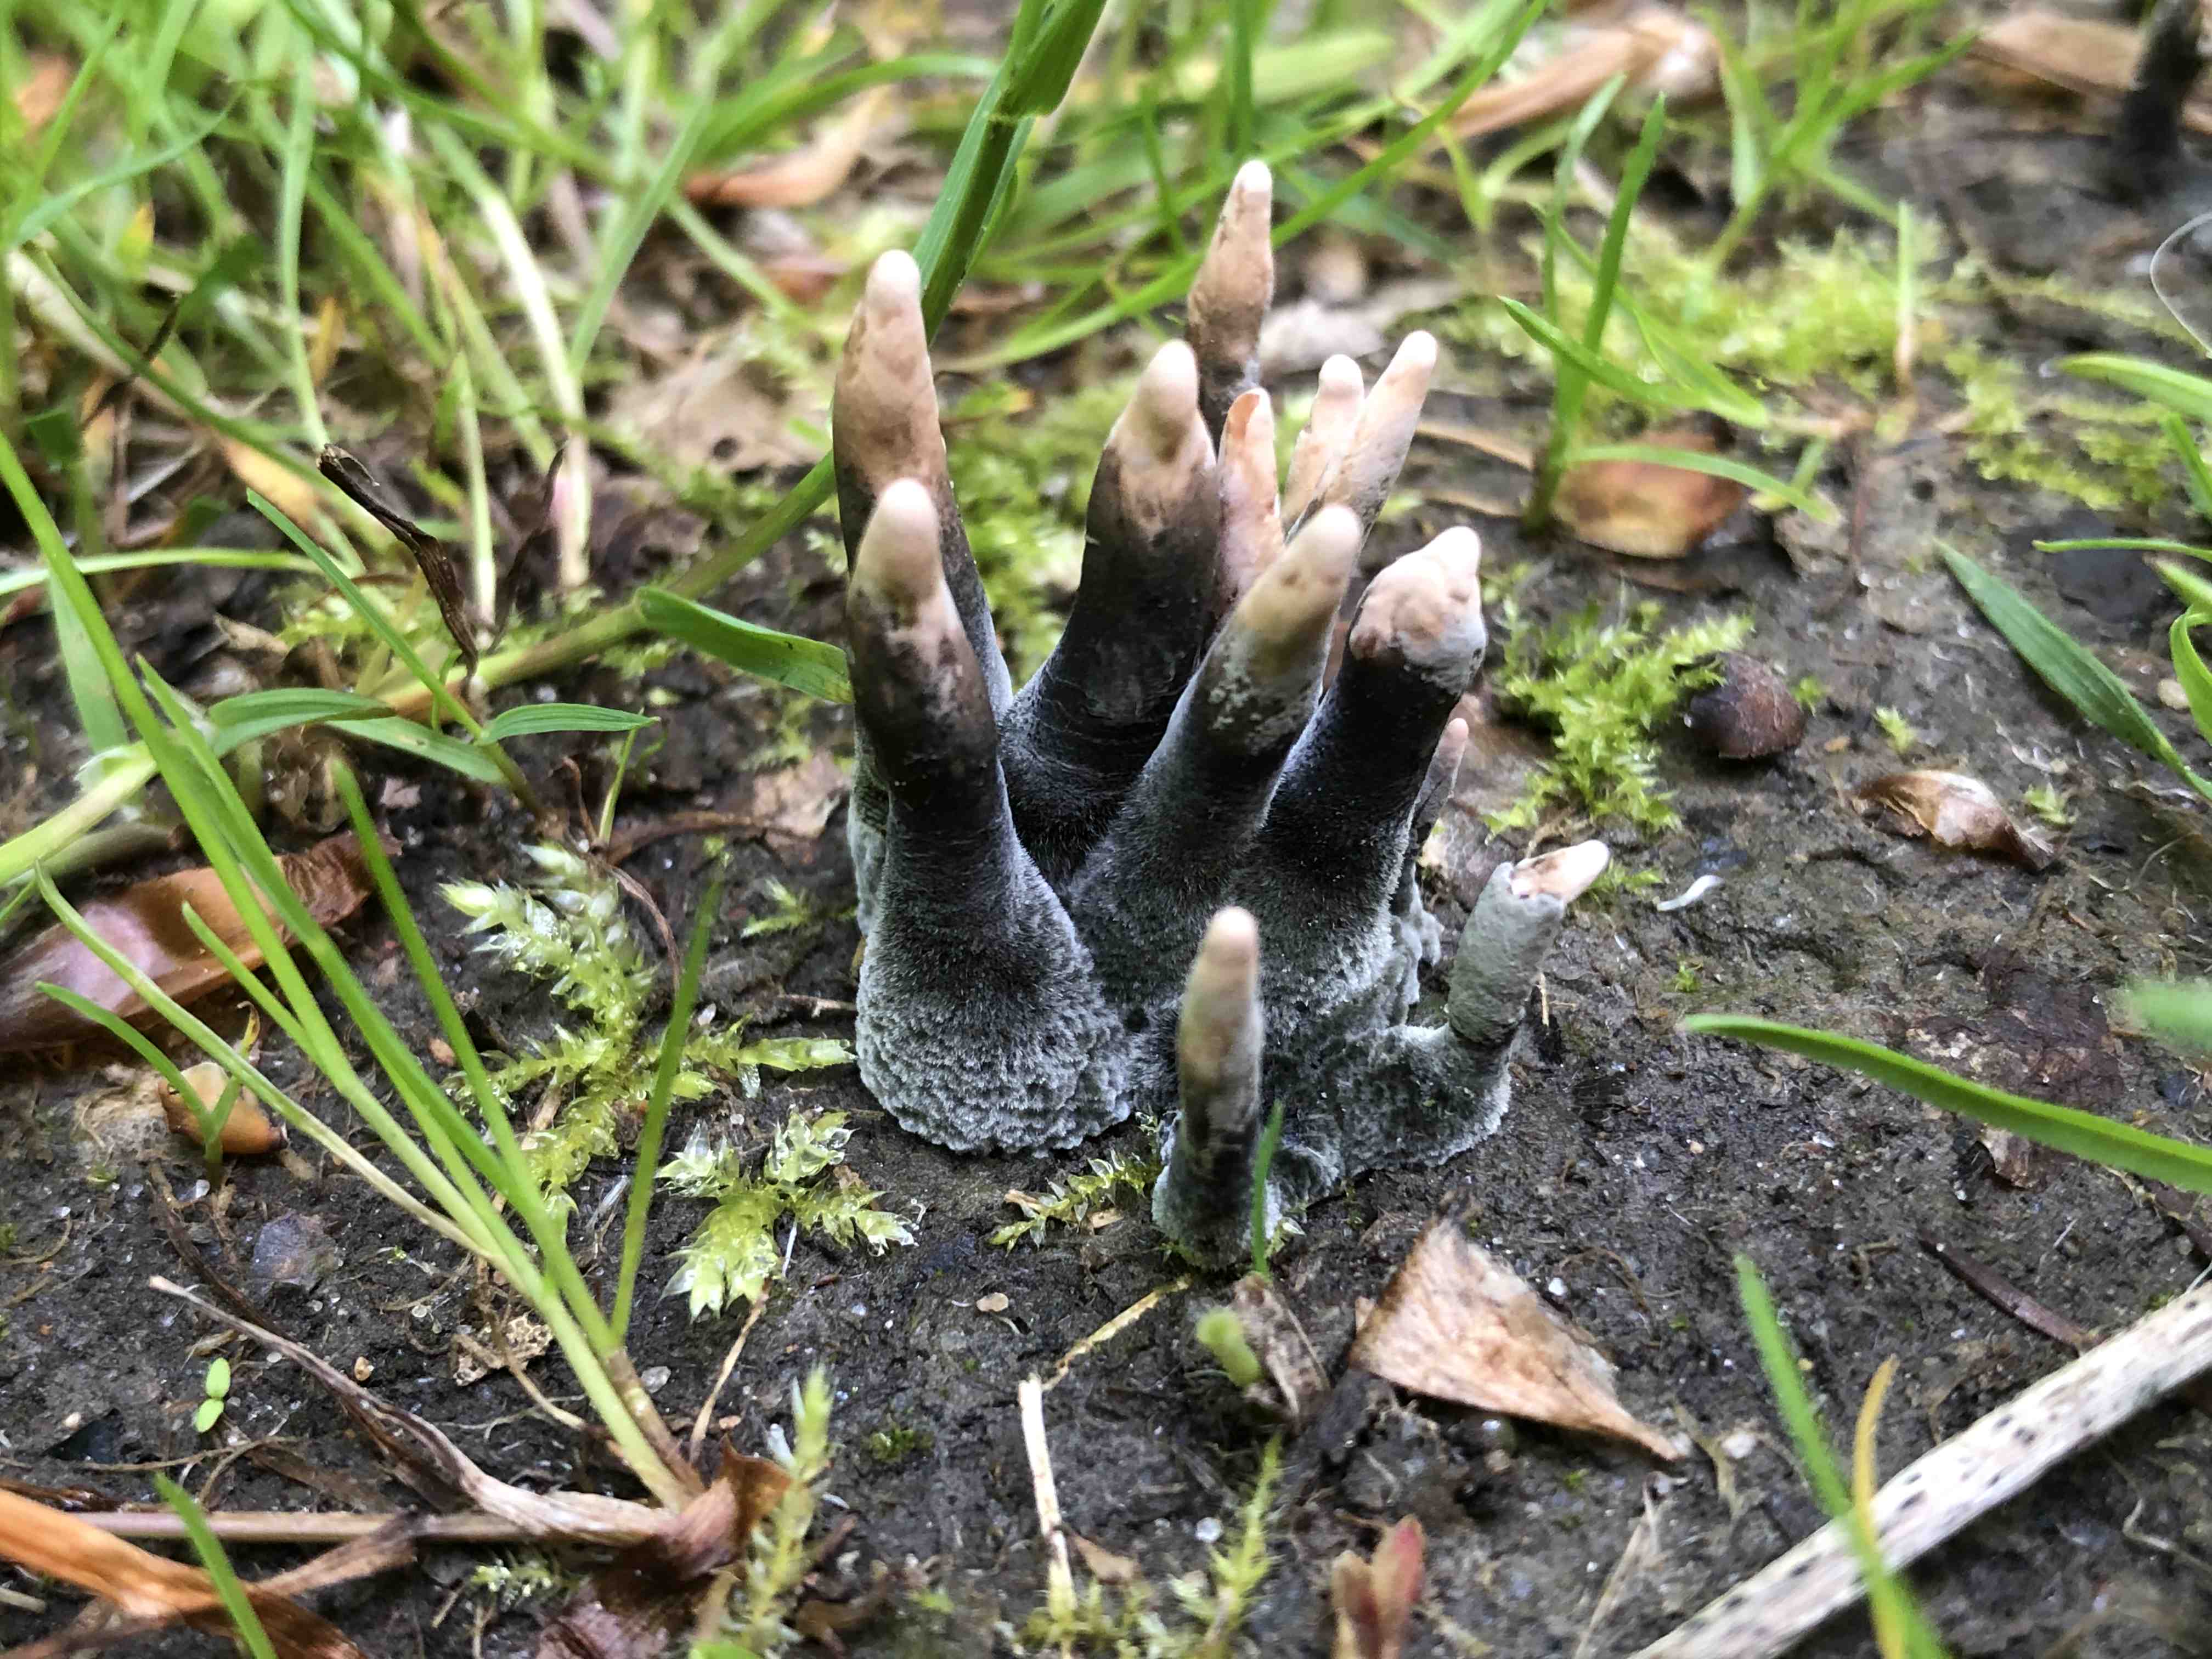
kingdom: Fungi
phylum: Ascomycota
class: Sordariomycetes
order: Xylariales
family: Xylariaceae
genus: Xylaria
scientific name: Xylaria longipes
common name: slank stødsvamp
